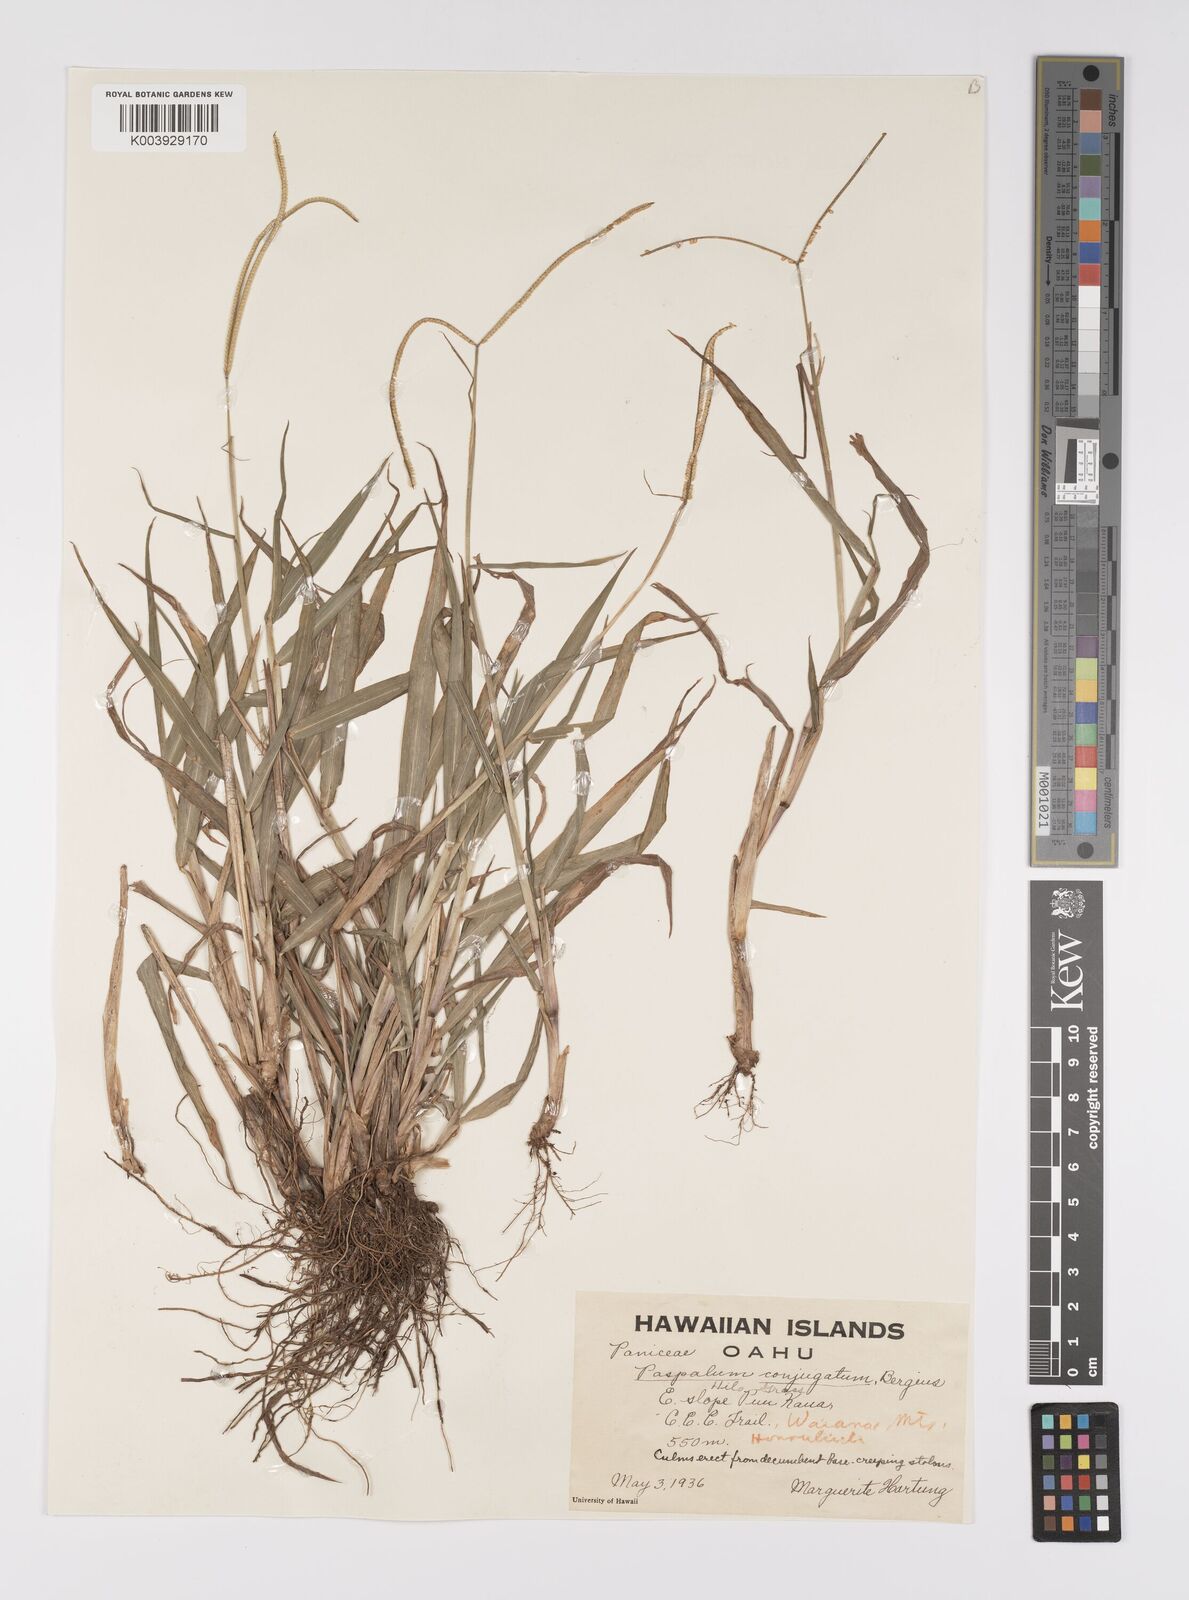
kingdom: Plantae
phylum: Tracheophyta
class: Liliopsida
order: Poales
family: Poaceae
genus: Paspalum
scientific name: Paspalum conjugatum
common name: Hilograss
